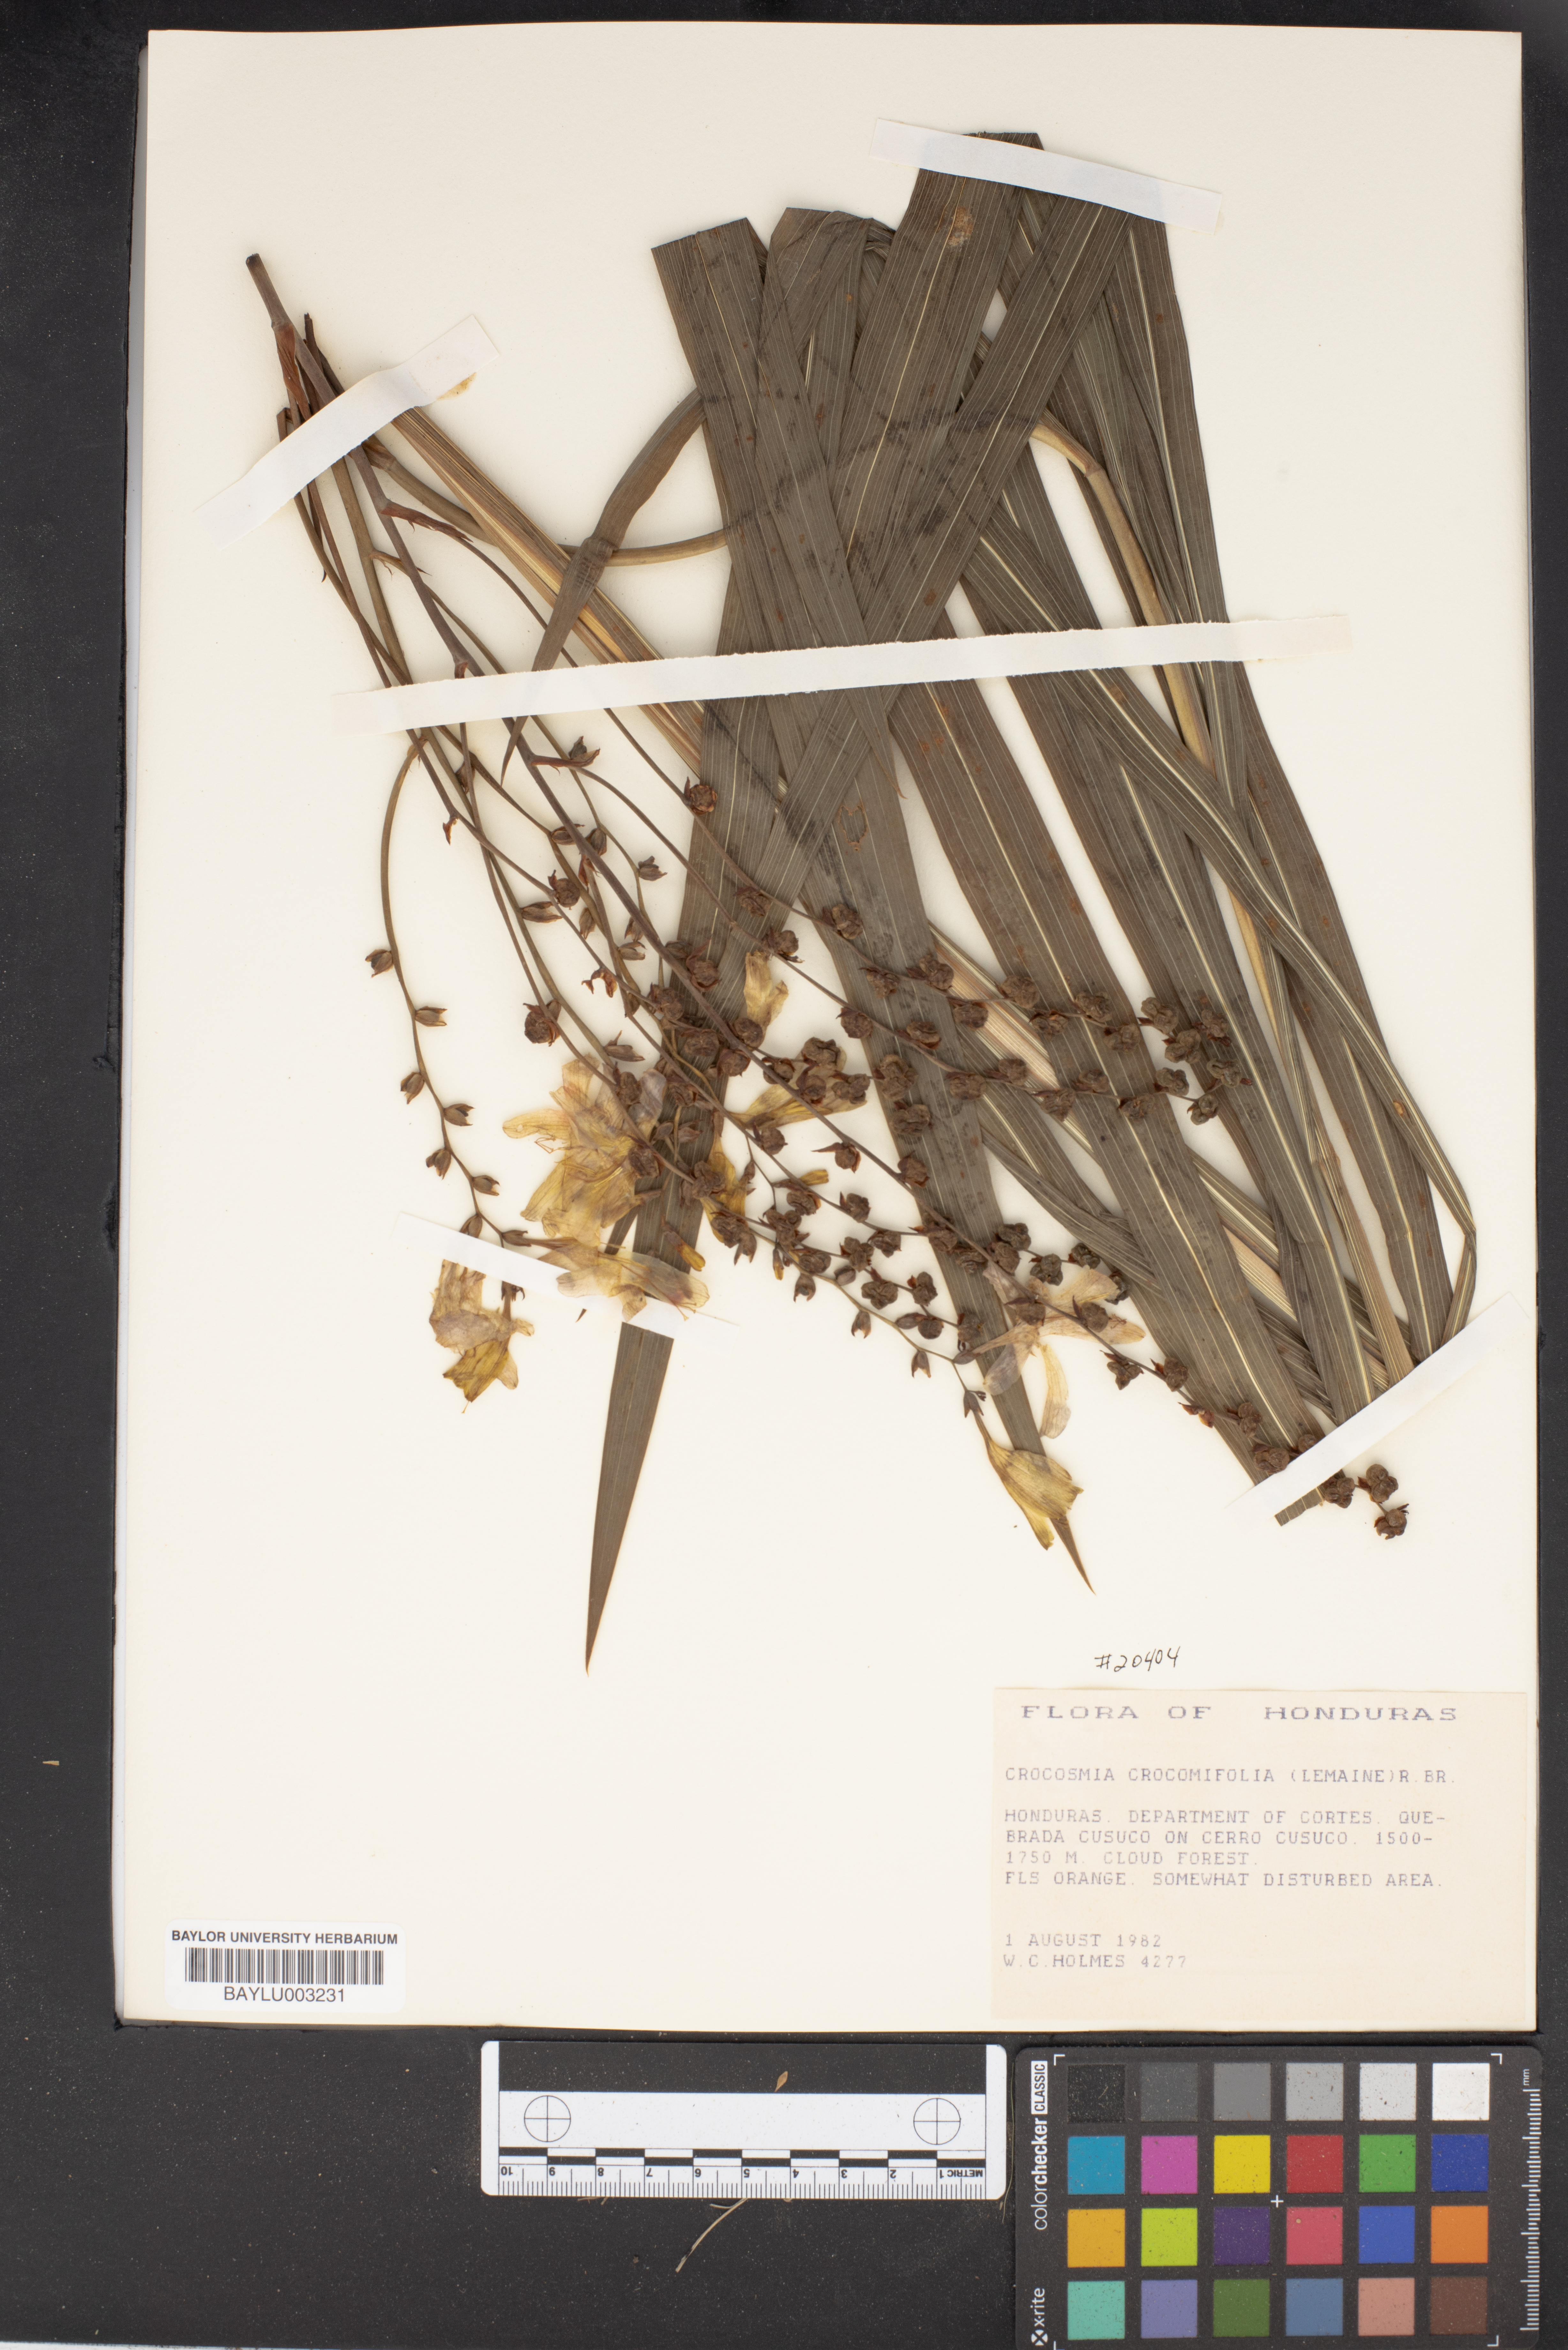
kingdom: Plantae
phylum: Tracheophyta
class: Liliopsida
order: Asparagales
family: Iridaceae
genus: Crocosmia
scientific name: Crocosmia crocosmiiflora
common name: Montbretia
